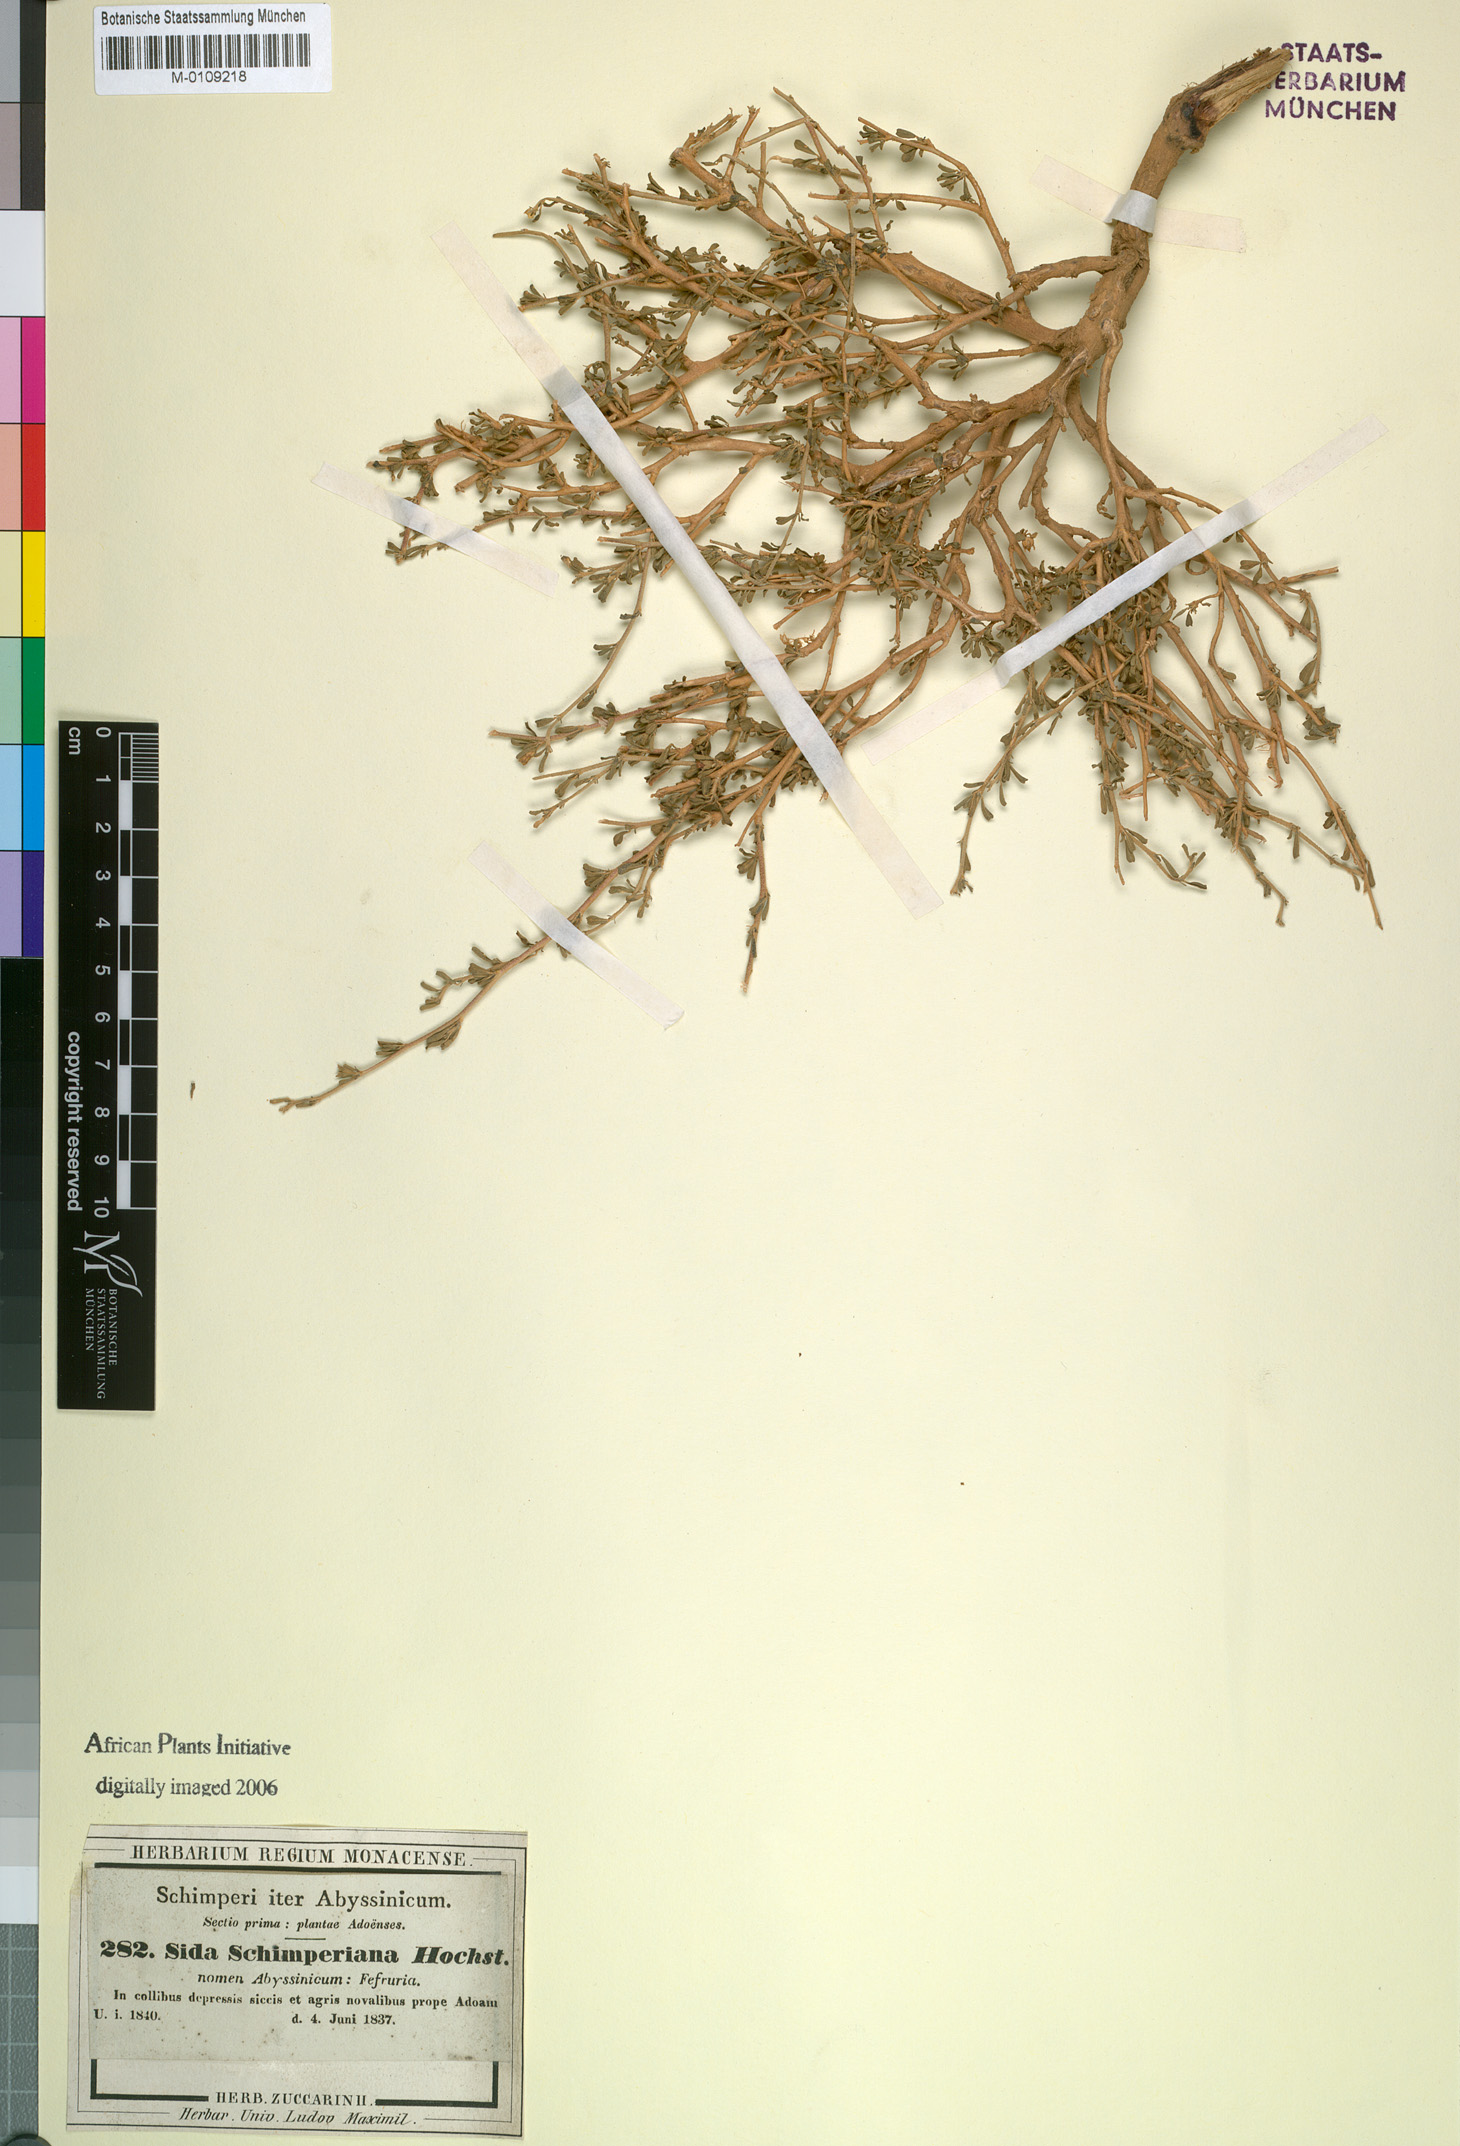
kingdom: Plantae
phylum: Tracheophyta
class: Magnoliopsida
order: Malvales
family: Malvaceae
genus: Sida
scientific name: Sida schimperiana
